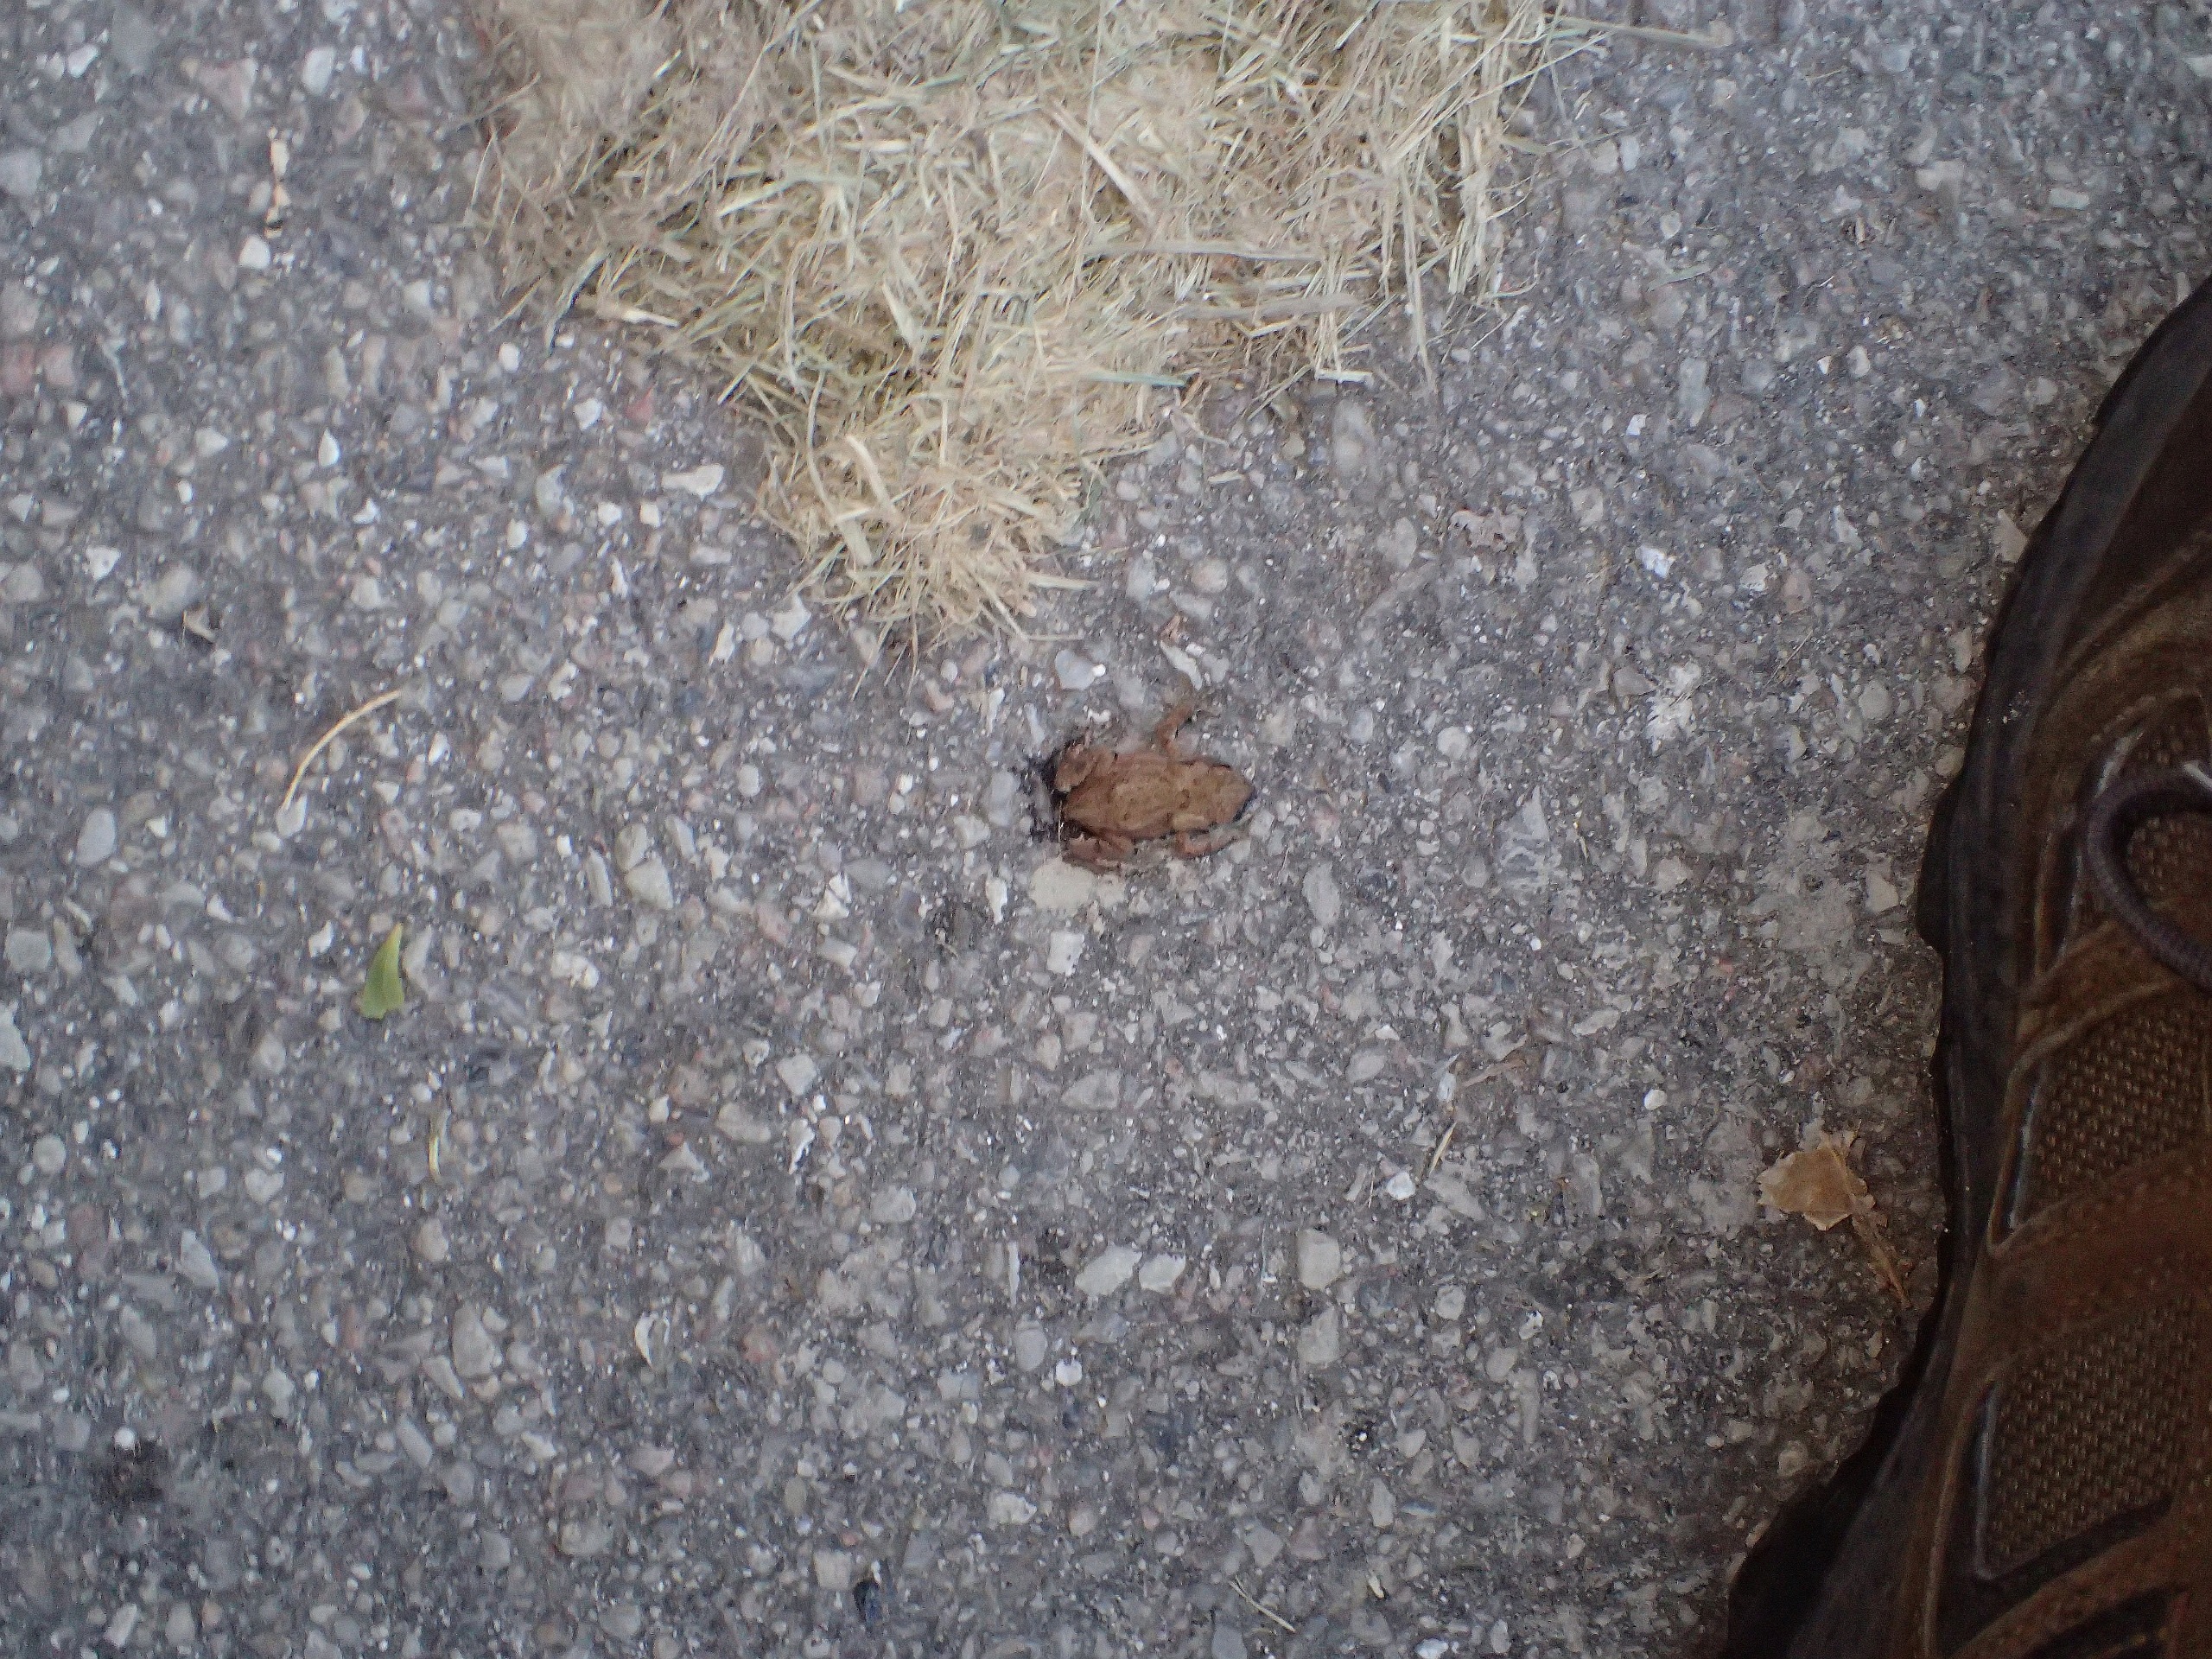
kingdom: Animalia
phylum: Chordata
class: Amphibia
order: Anura
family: Bufonidae
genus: Bufo
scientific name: Bufo bufo
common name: Skrubtudse
